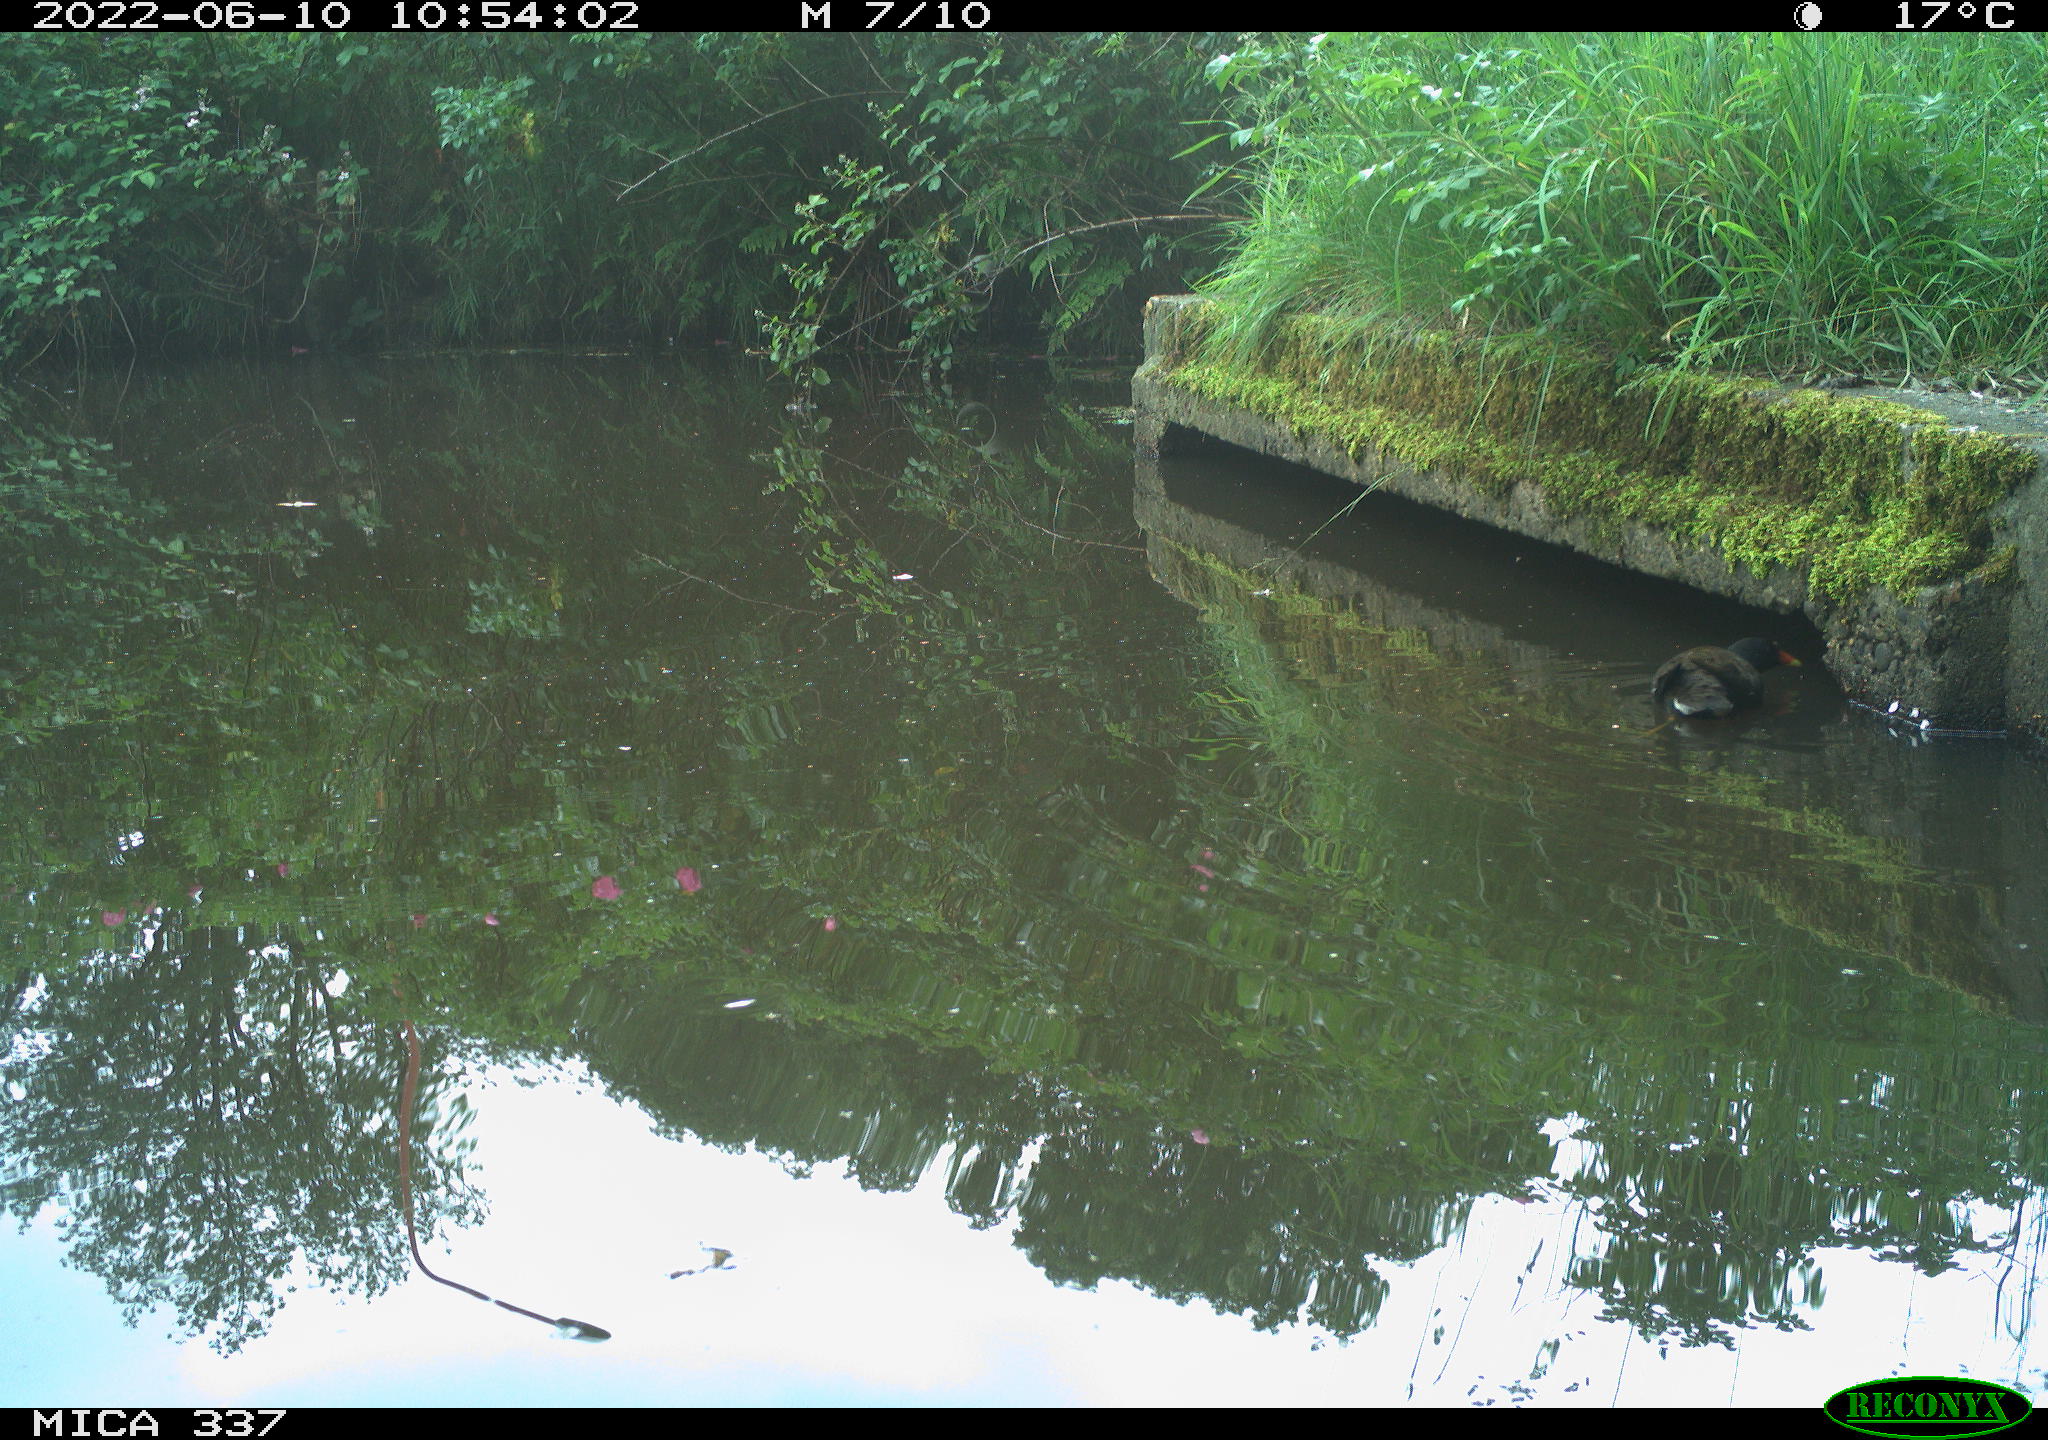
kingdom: Animalia
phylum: Chordata
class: Aves
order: Gruiformes
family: Rallidae
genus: Gallinula
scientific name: Gallinula chloropus
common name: Common moorhen
